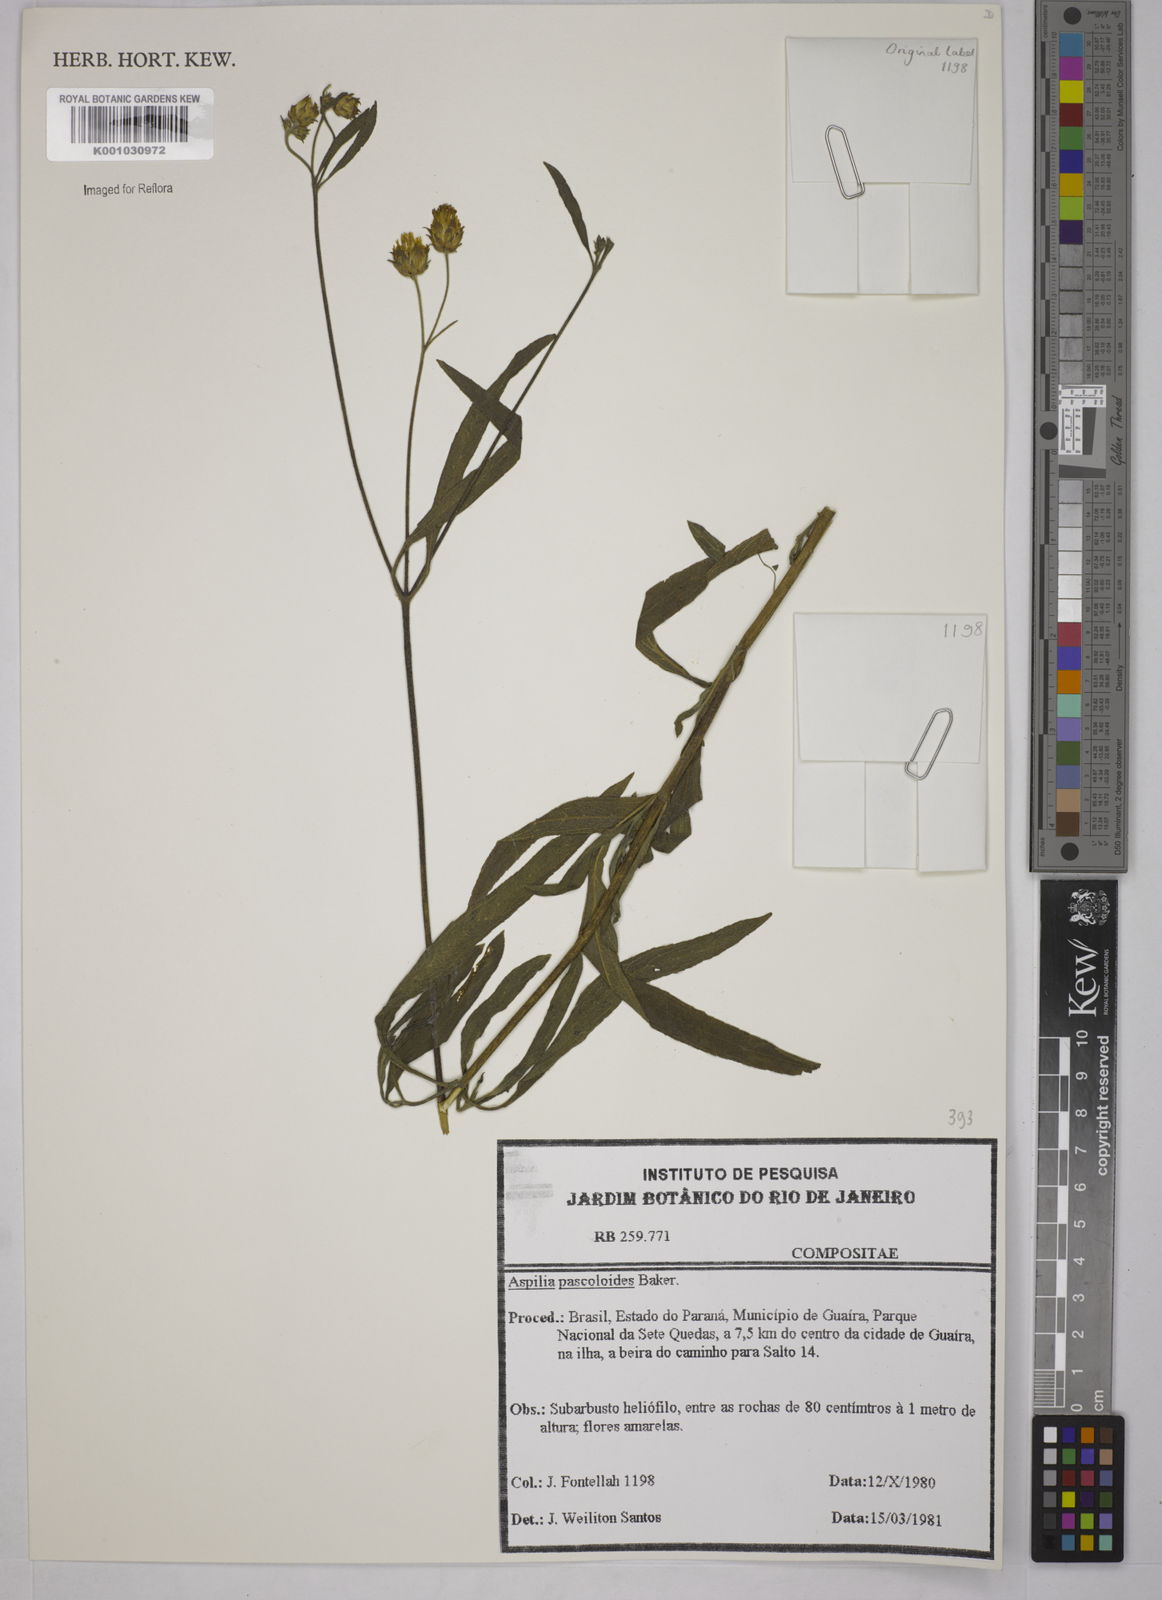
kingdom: Plantae
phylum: Tracheophyta
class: Magnoliopsida
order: Asterales
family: Asteraceae
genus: Wedelia
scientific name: Wedelia pascalioides
